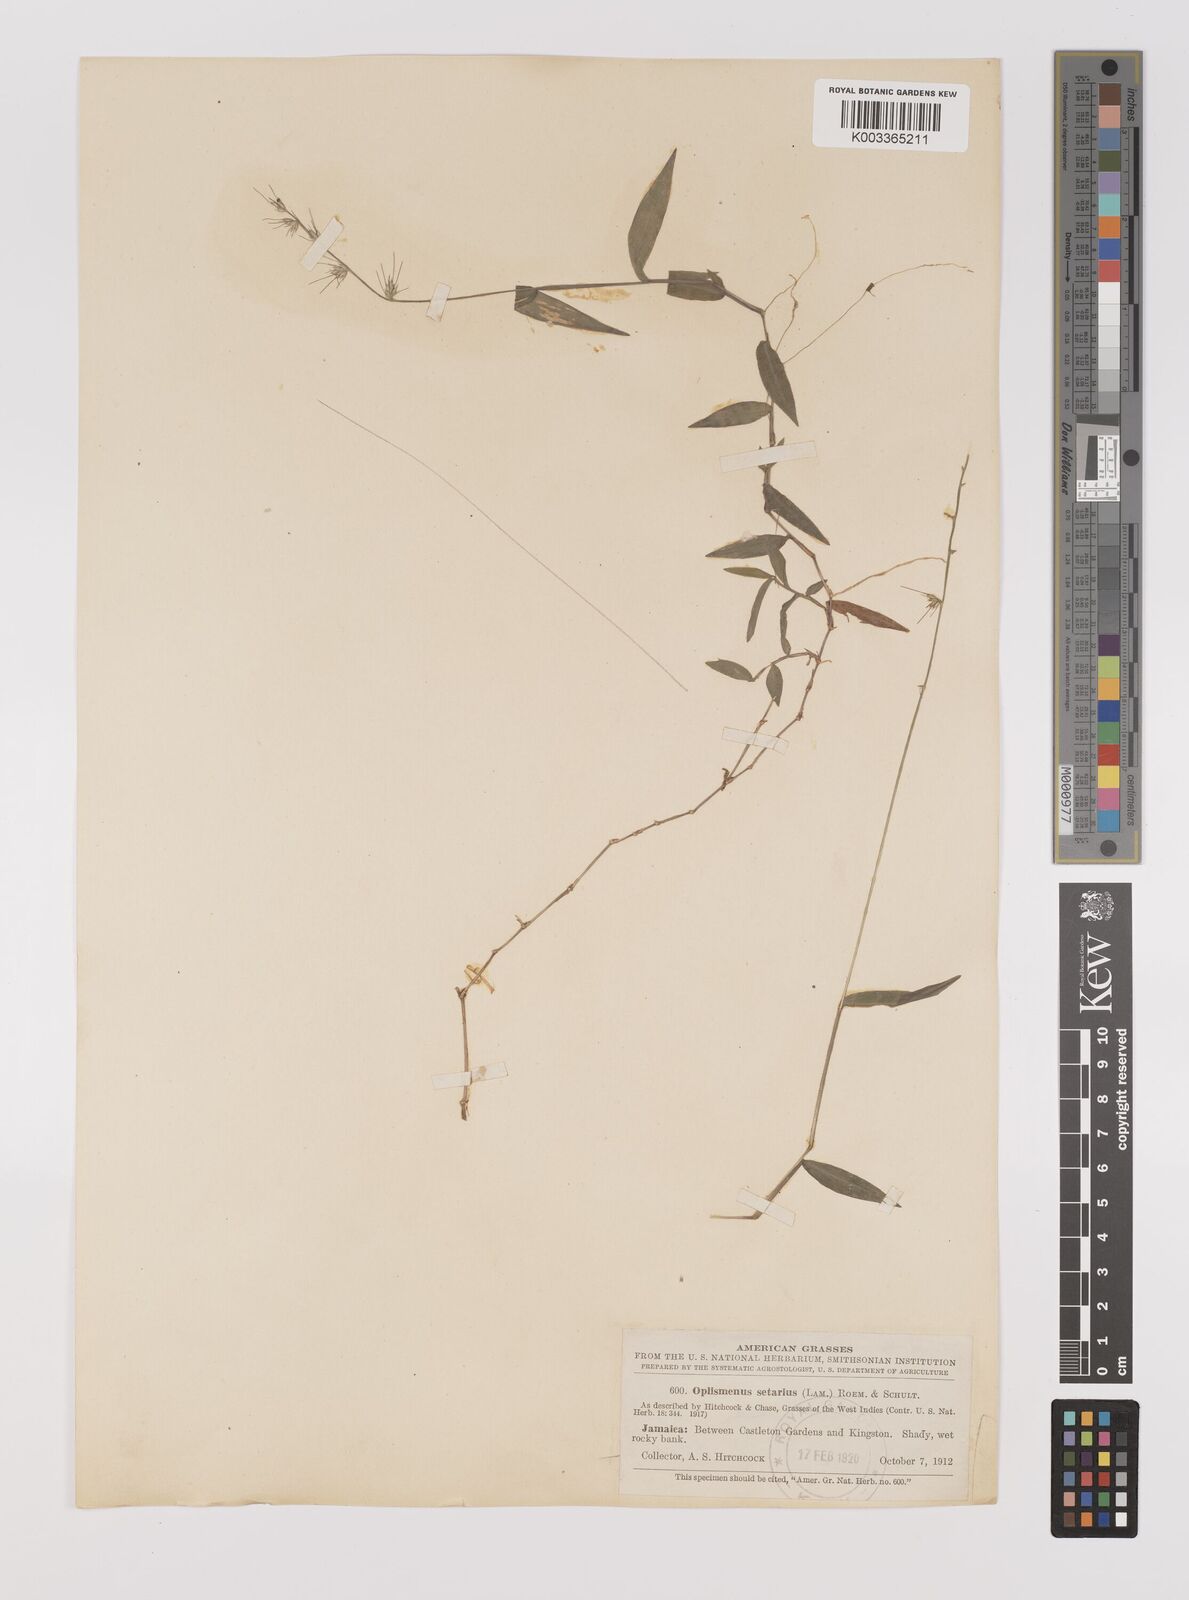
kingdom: Plantae
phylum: Tracheophyta
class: Liliopsida
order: Poales
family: Poaceae
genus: Oplismenus
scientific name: Oplismenus hirtellus
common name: Basketgrass
